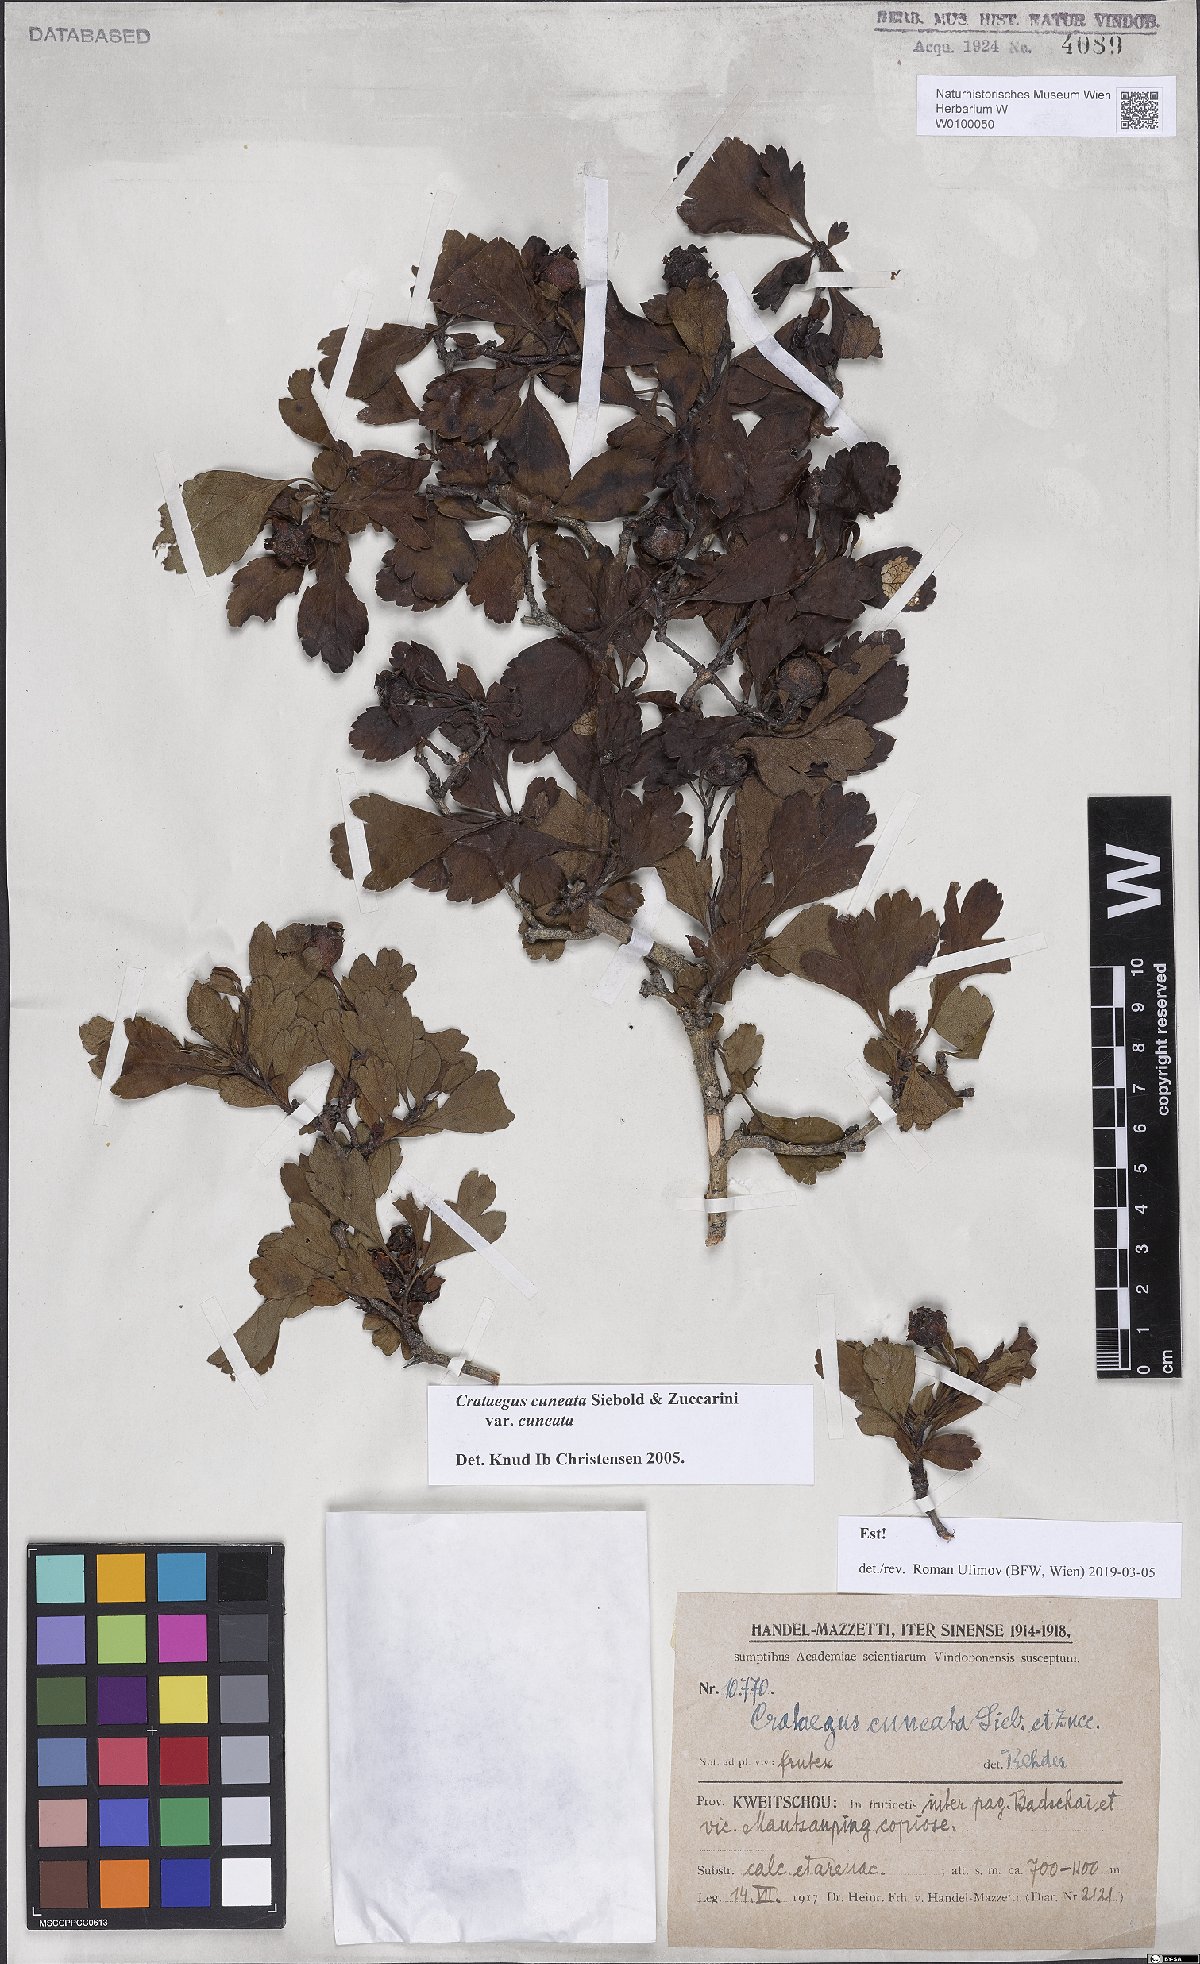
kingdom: Plantae
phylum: Tracheophyta
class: Magnoliopsida
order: Rosales
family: Rosaceae
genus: Crataegus
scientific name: Crataegus cuneata
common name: Chinese hawthorn
